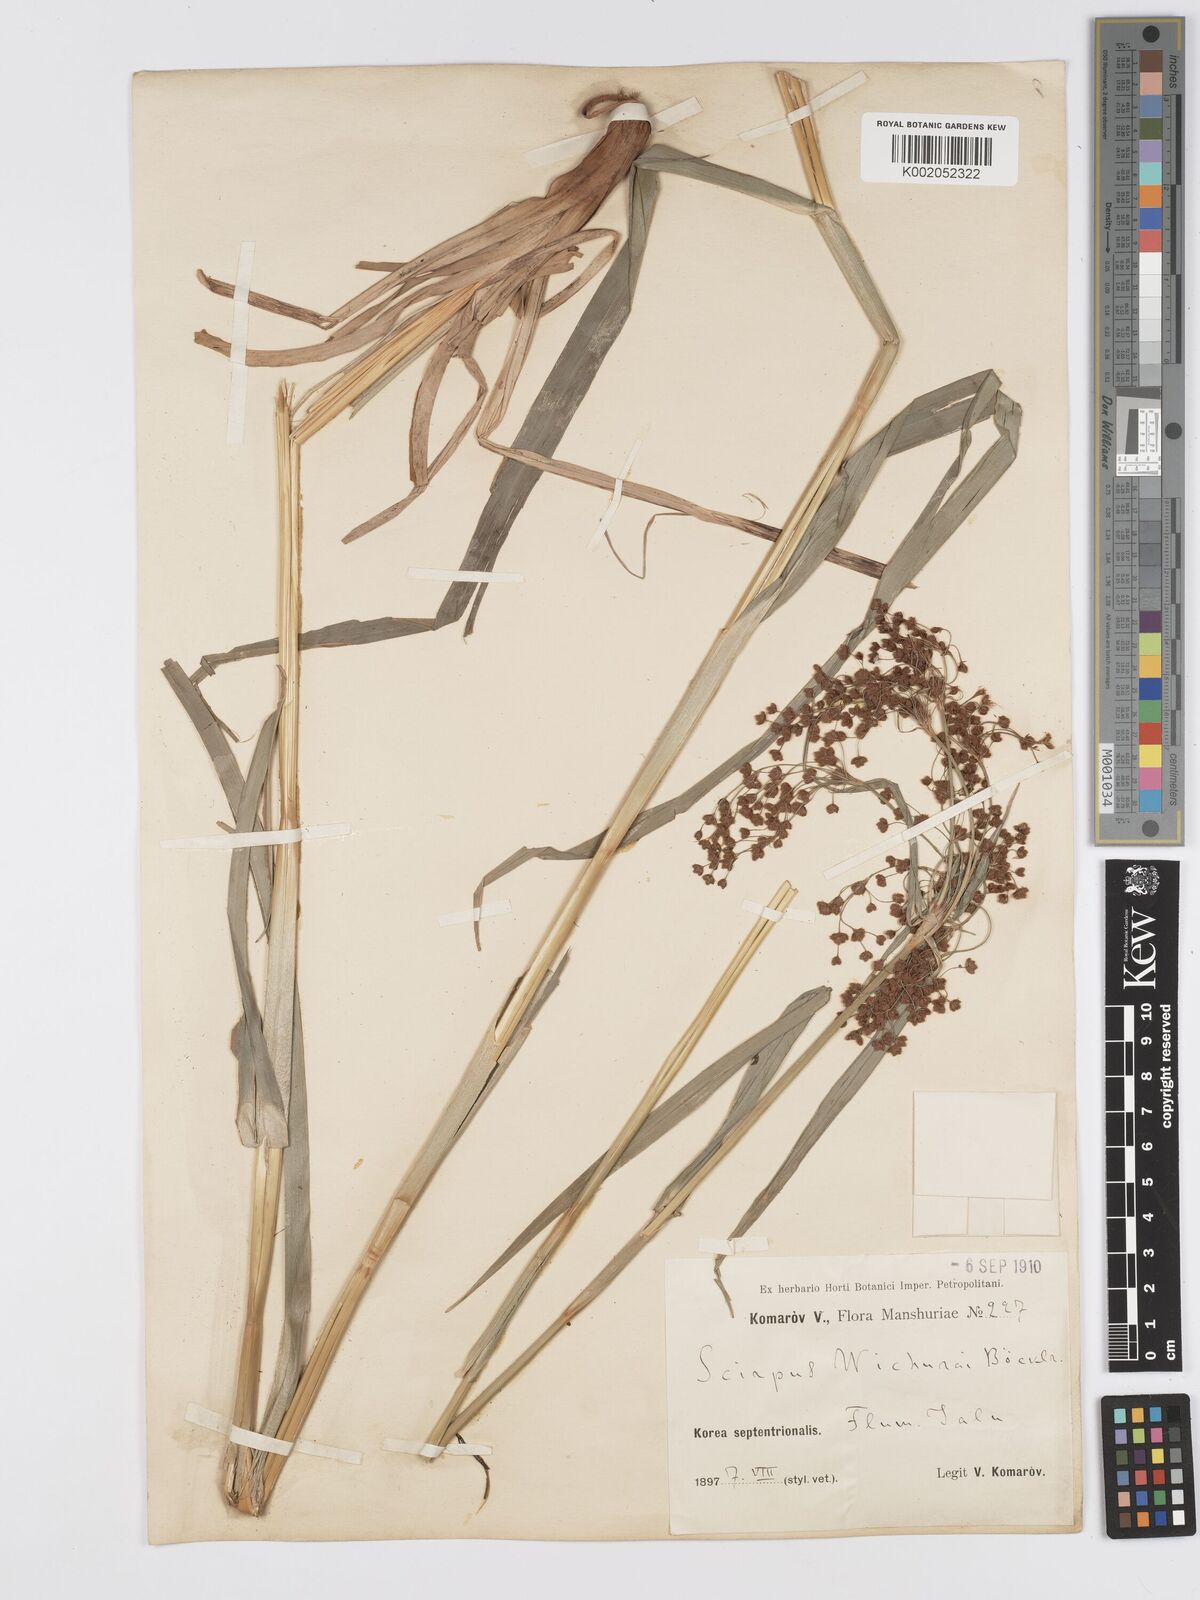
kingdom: Plantae
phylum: Tracheophyta
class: Liliopsida
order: Poales
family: Cyperaceae
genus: Scirpus
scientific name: Scirpus cyperinus
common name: Black-sheathed bulrush
